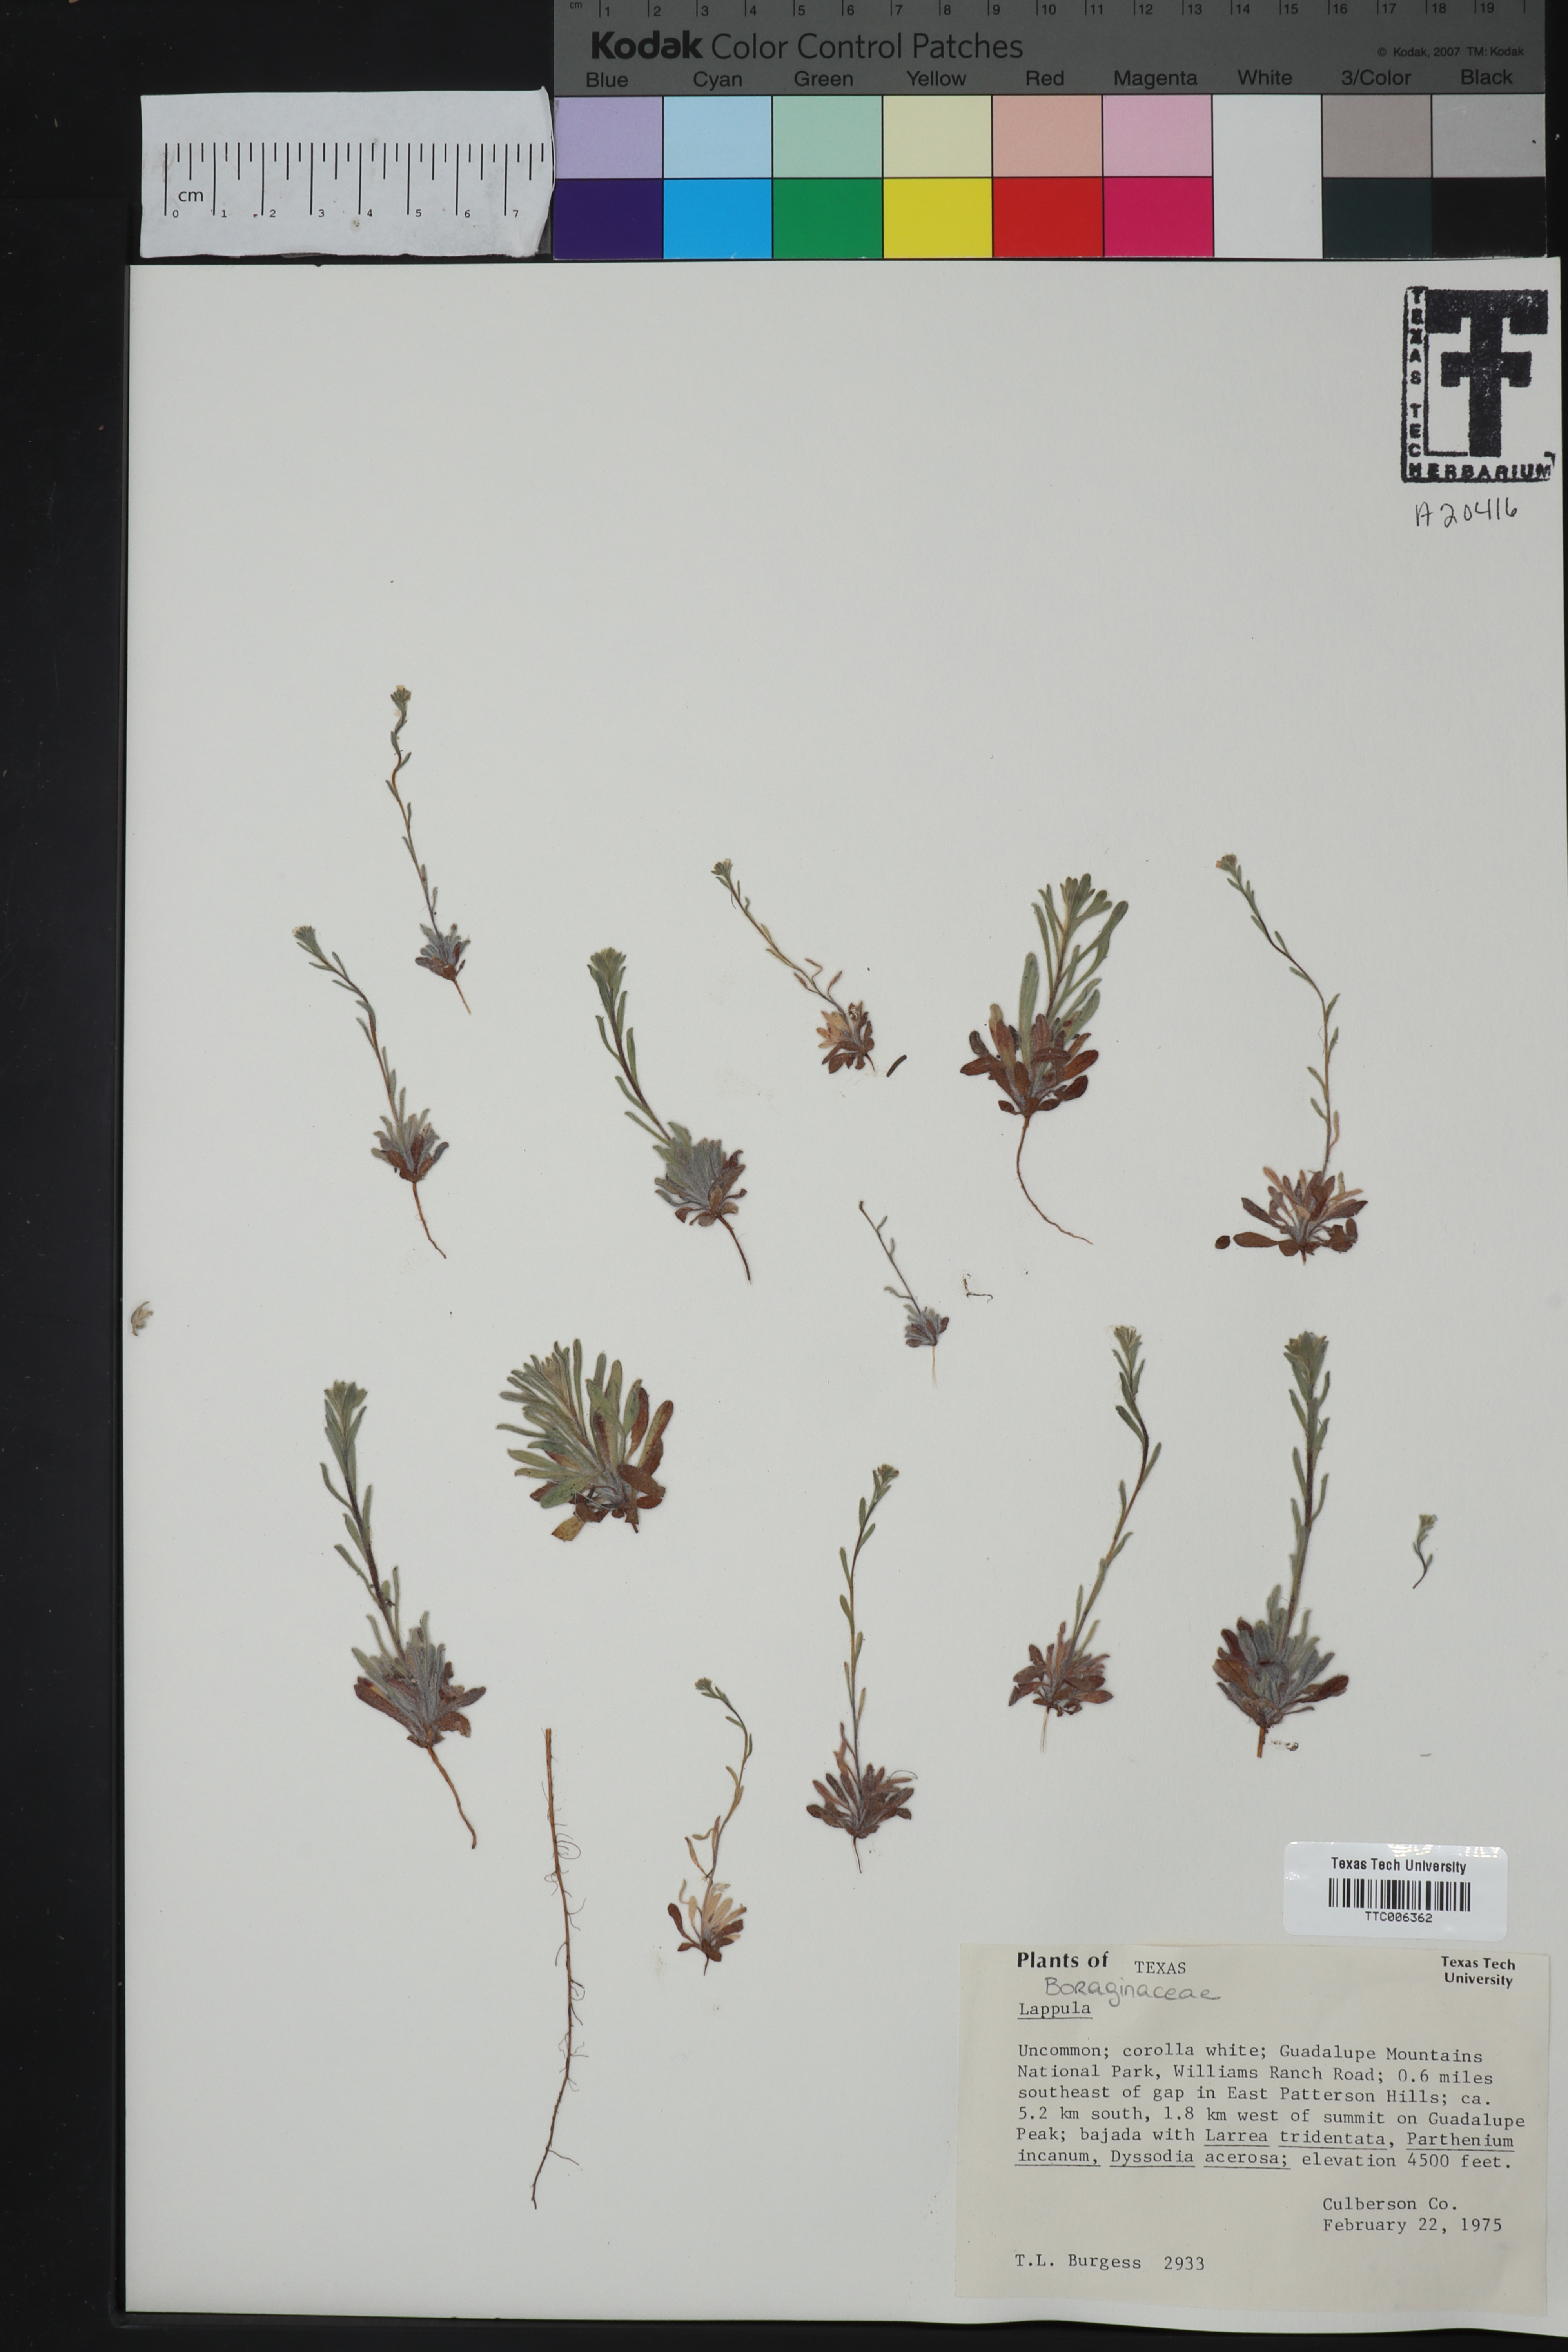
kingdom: Plantae
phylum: Tracheophyta
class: Magnoliopsida
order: Boraginales
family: Boraginaceae
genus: Lappula
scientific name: Lappula
